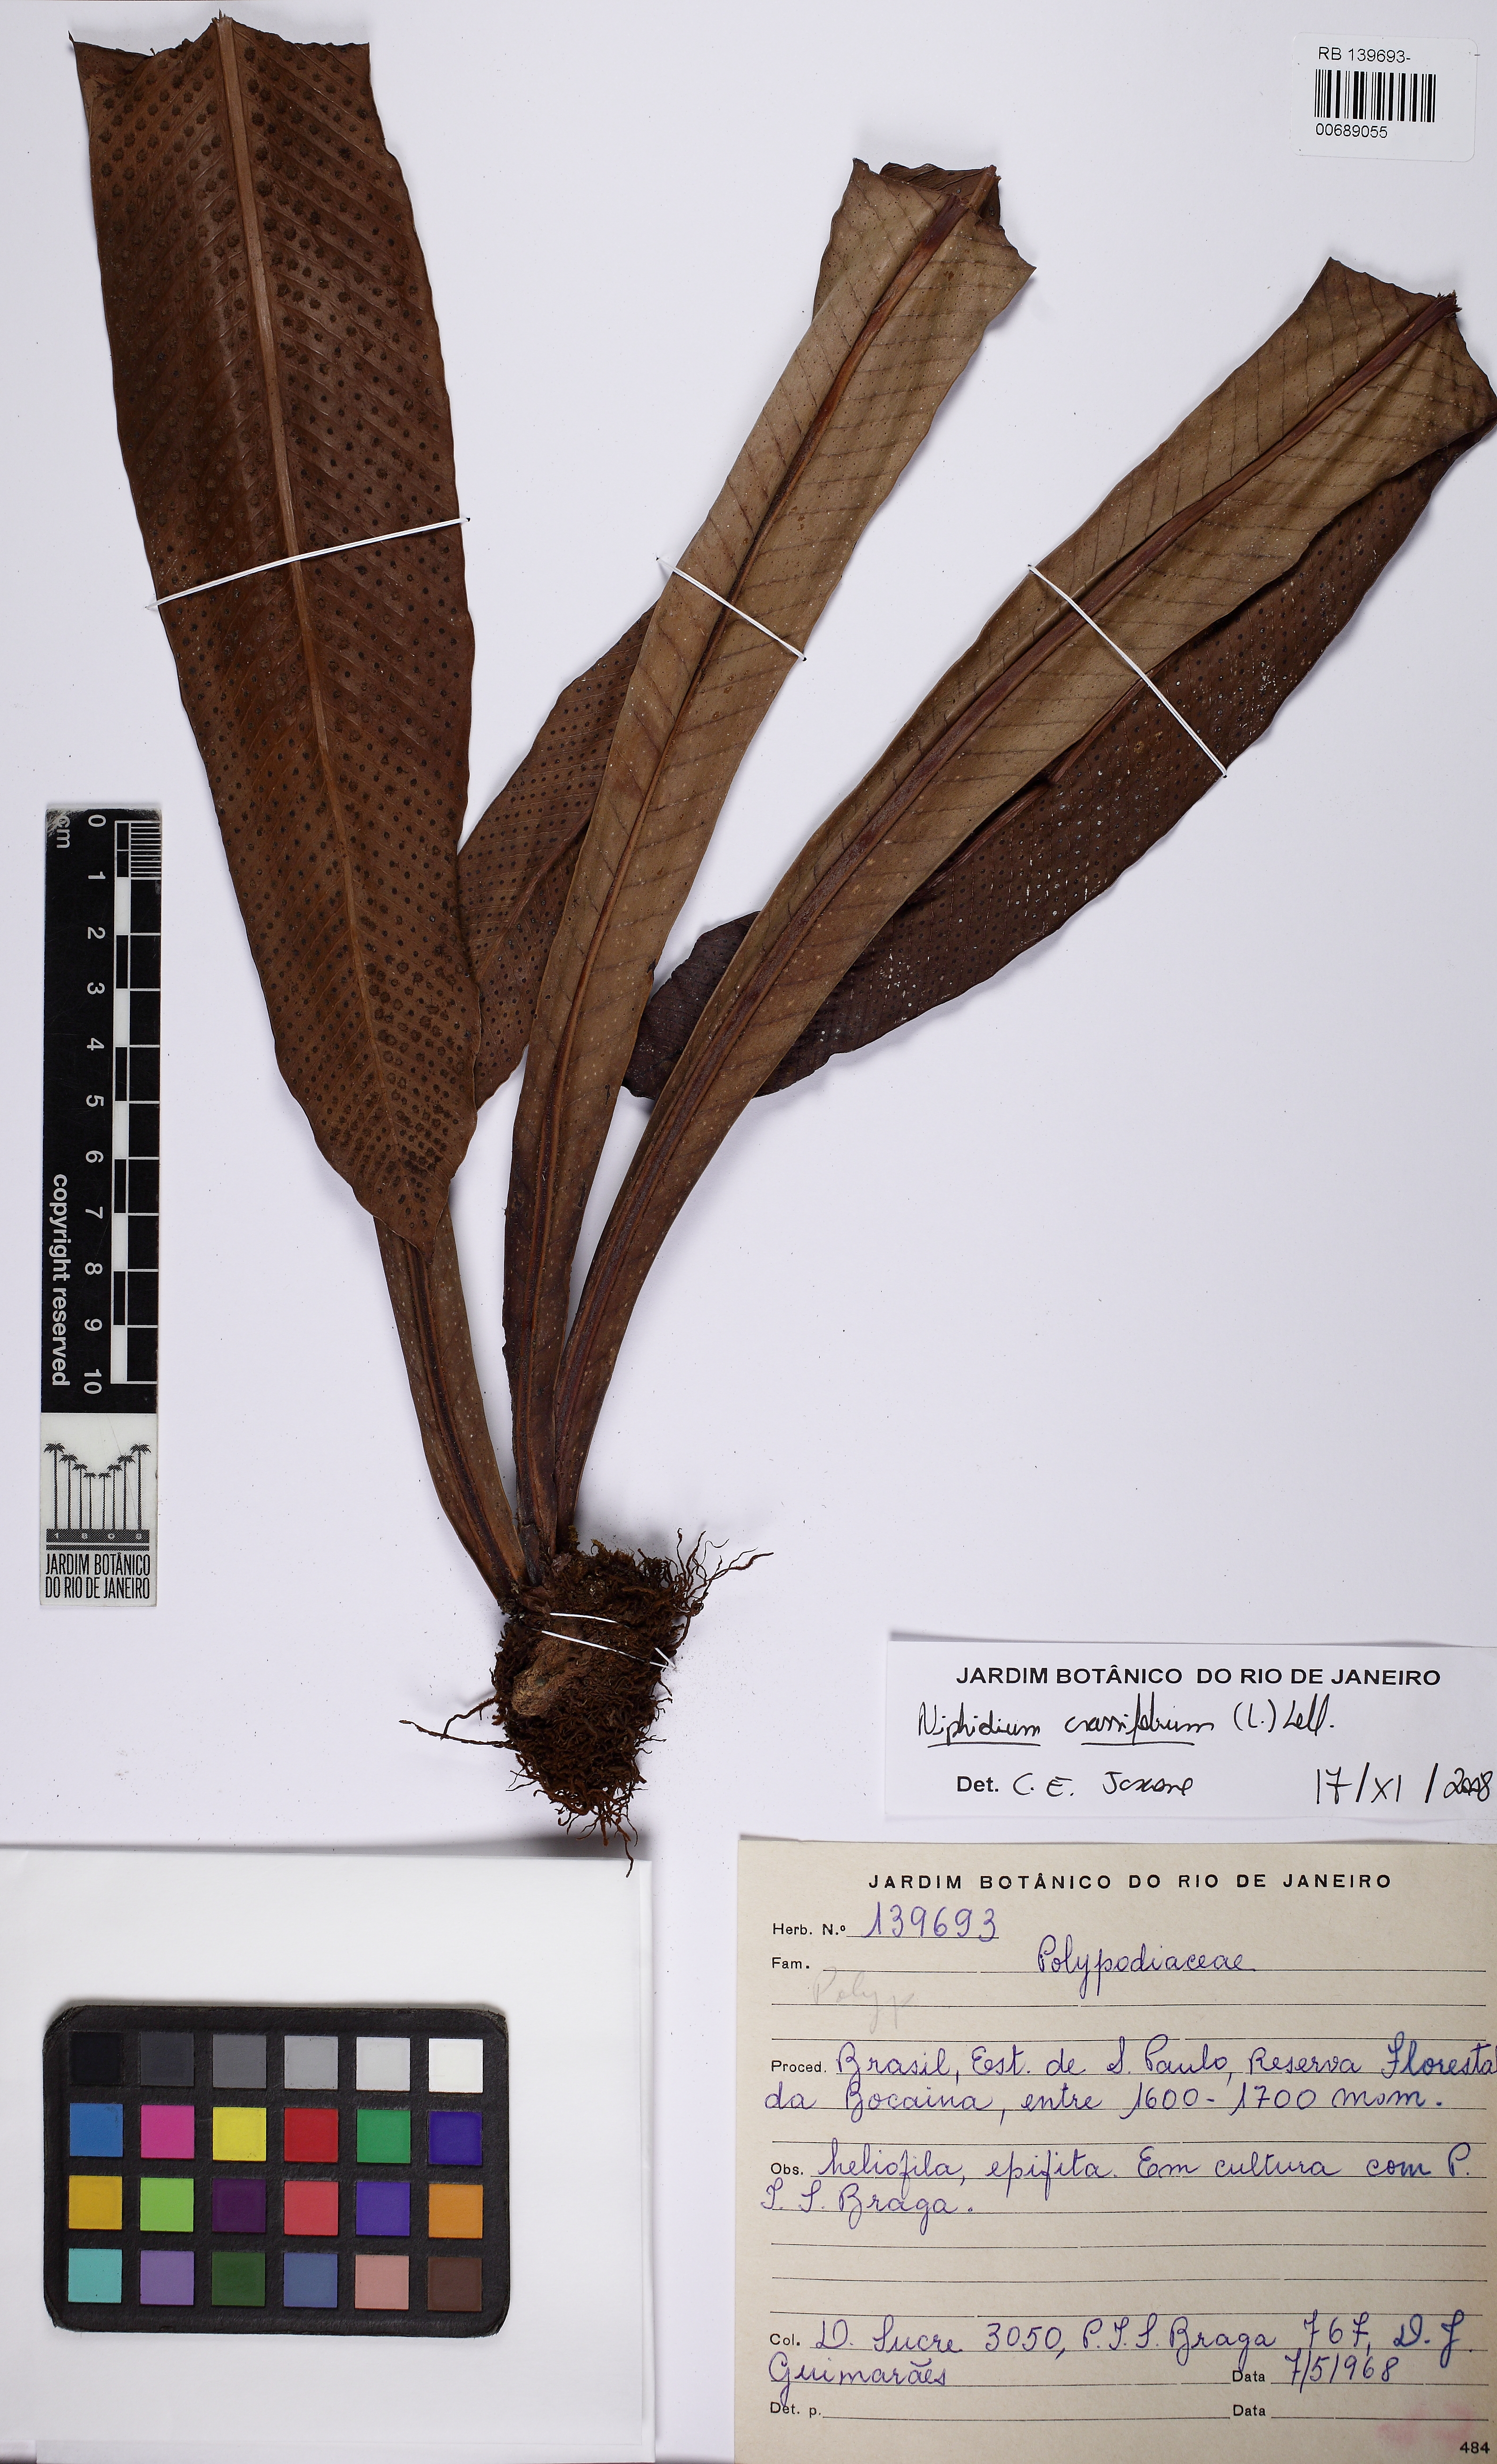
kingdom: Plantae
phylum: Tracheophyta
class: Polypodiopsida
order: Polypodiales
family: Polypodiaceae
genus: Niphidium
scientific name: Niphidium crassifolium
